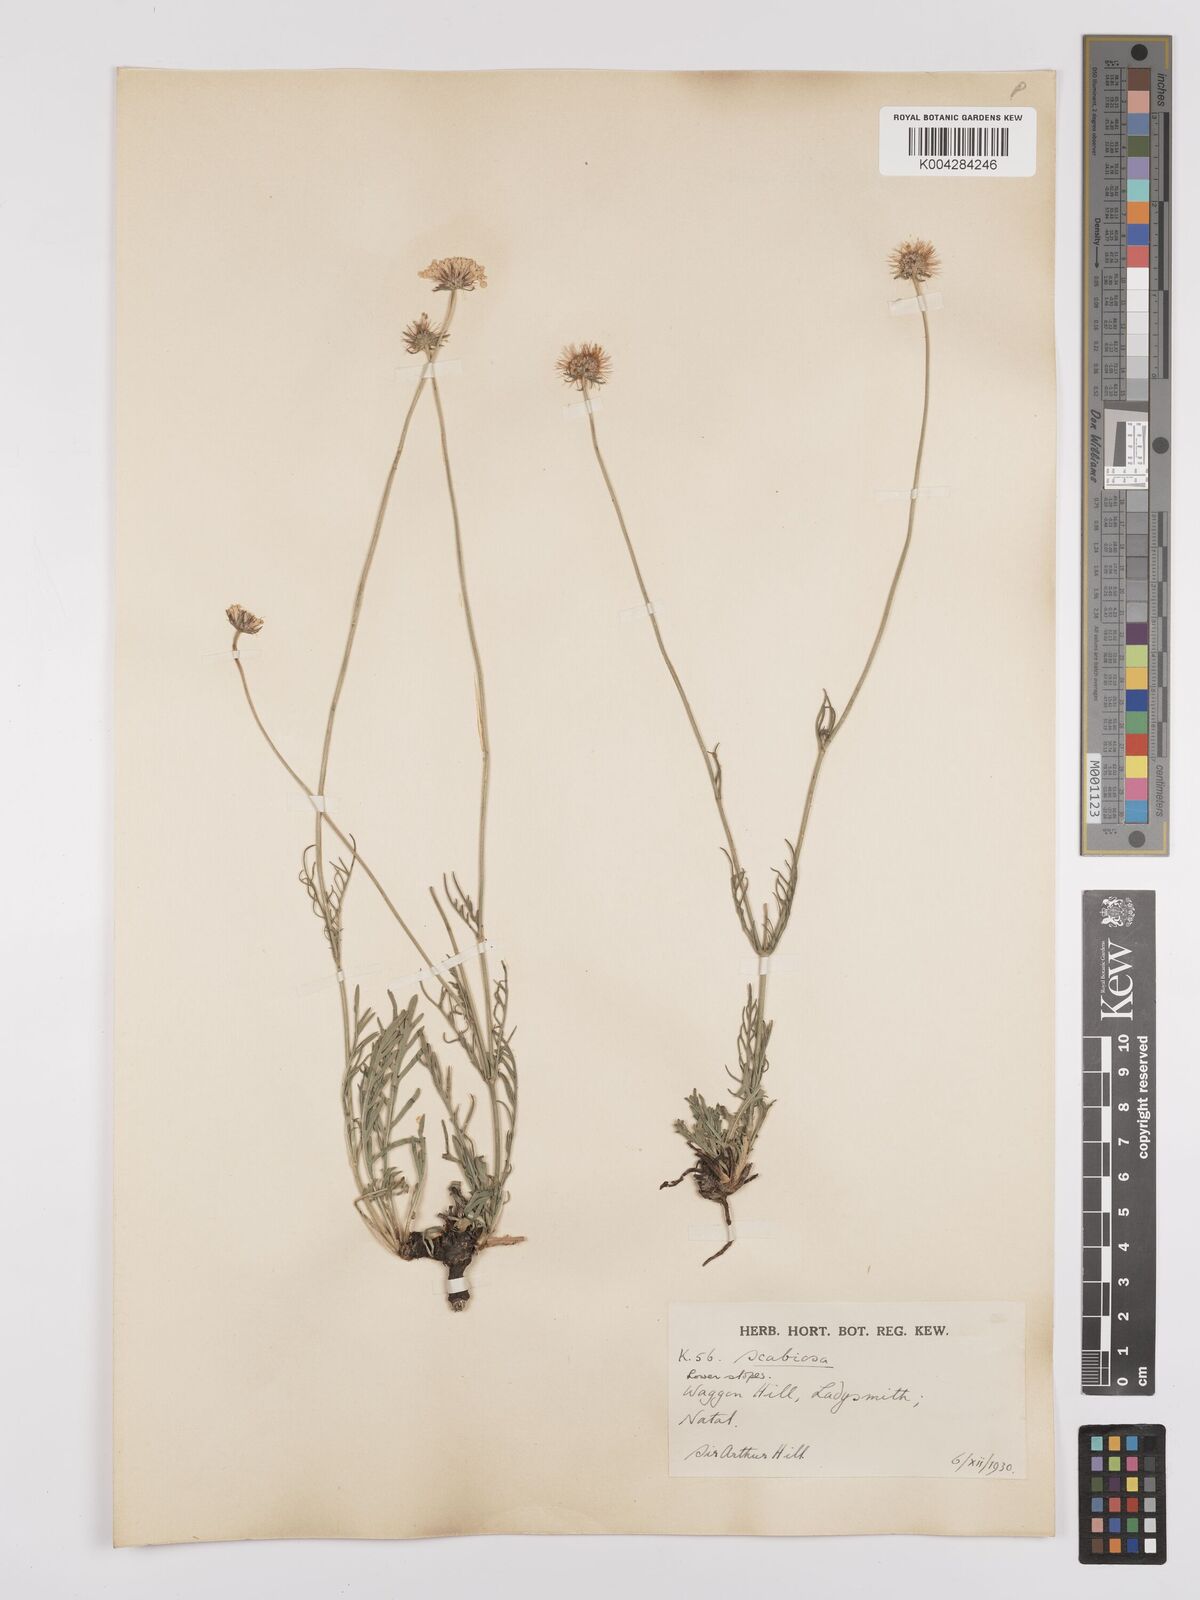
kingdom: Plantae
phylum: Tracheophyta
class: Magnoliopsida
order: Dipsacales
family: Caprifoliaceae
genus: Scabiosa
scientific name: Scabiosa columbaria
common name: Small scabious
